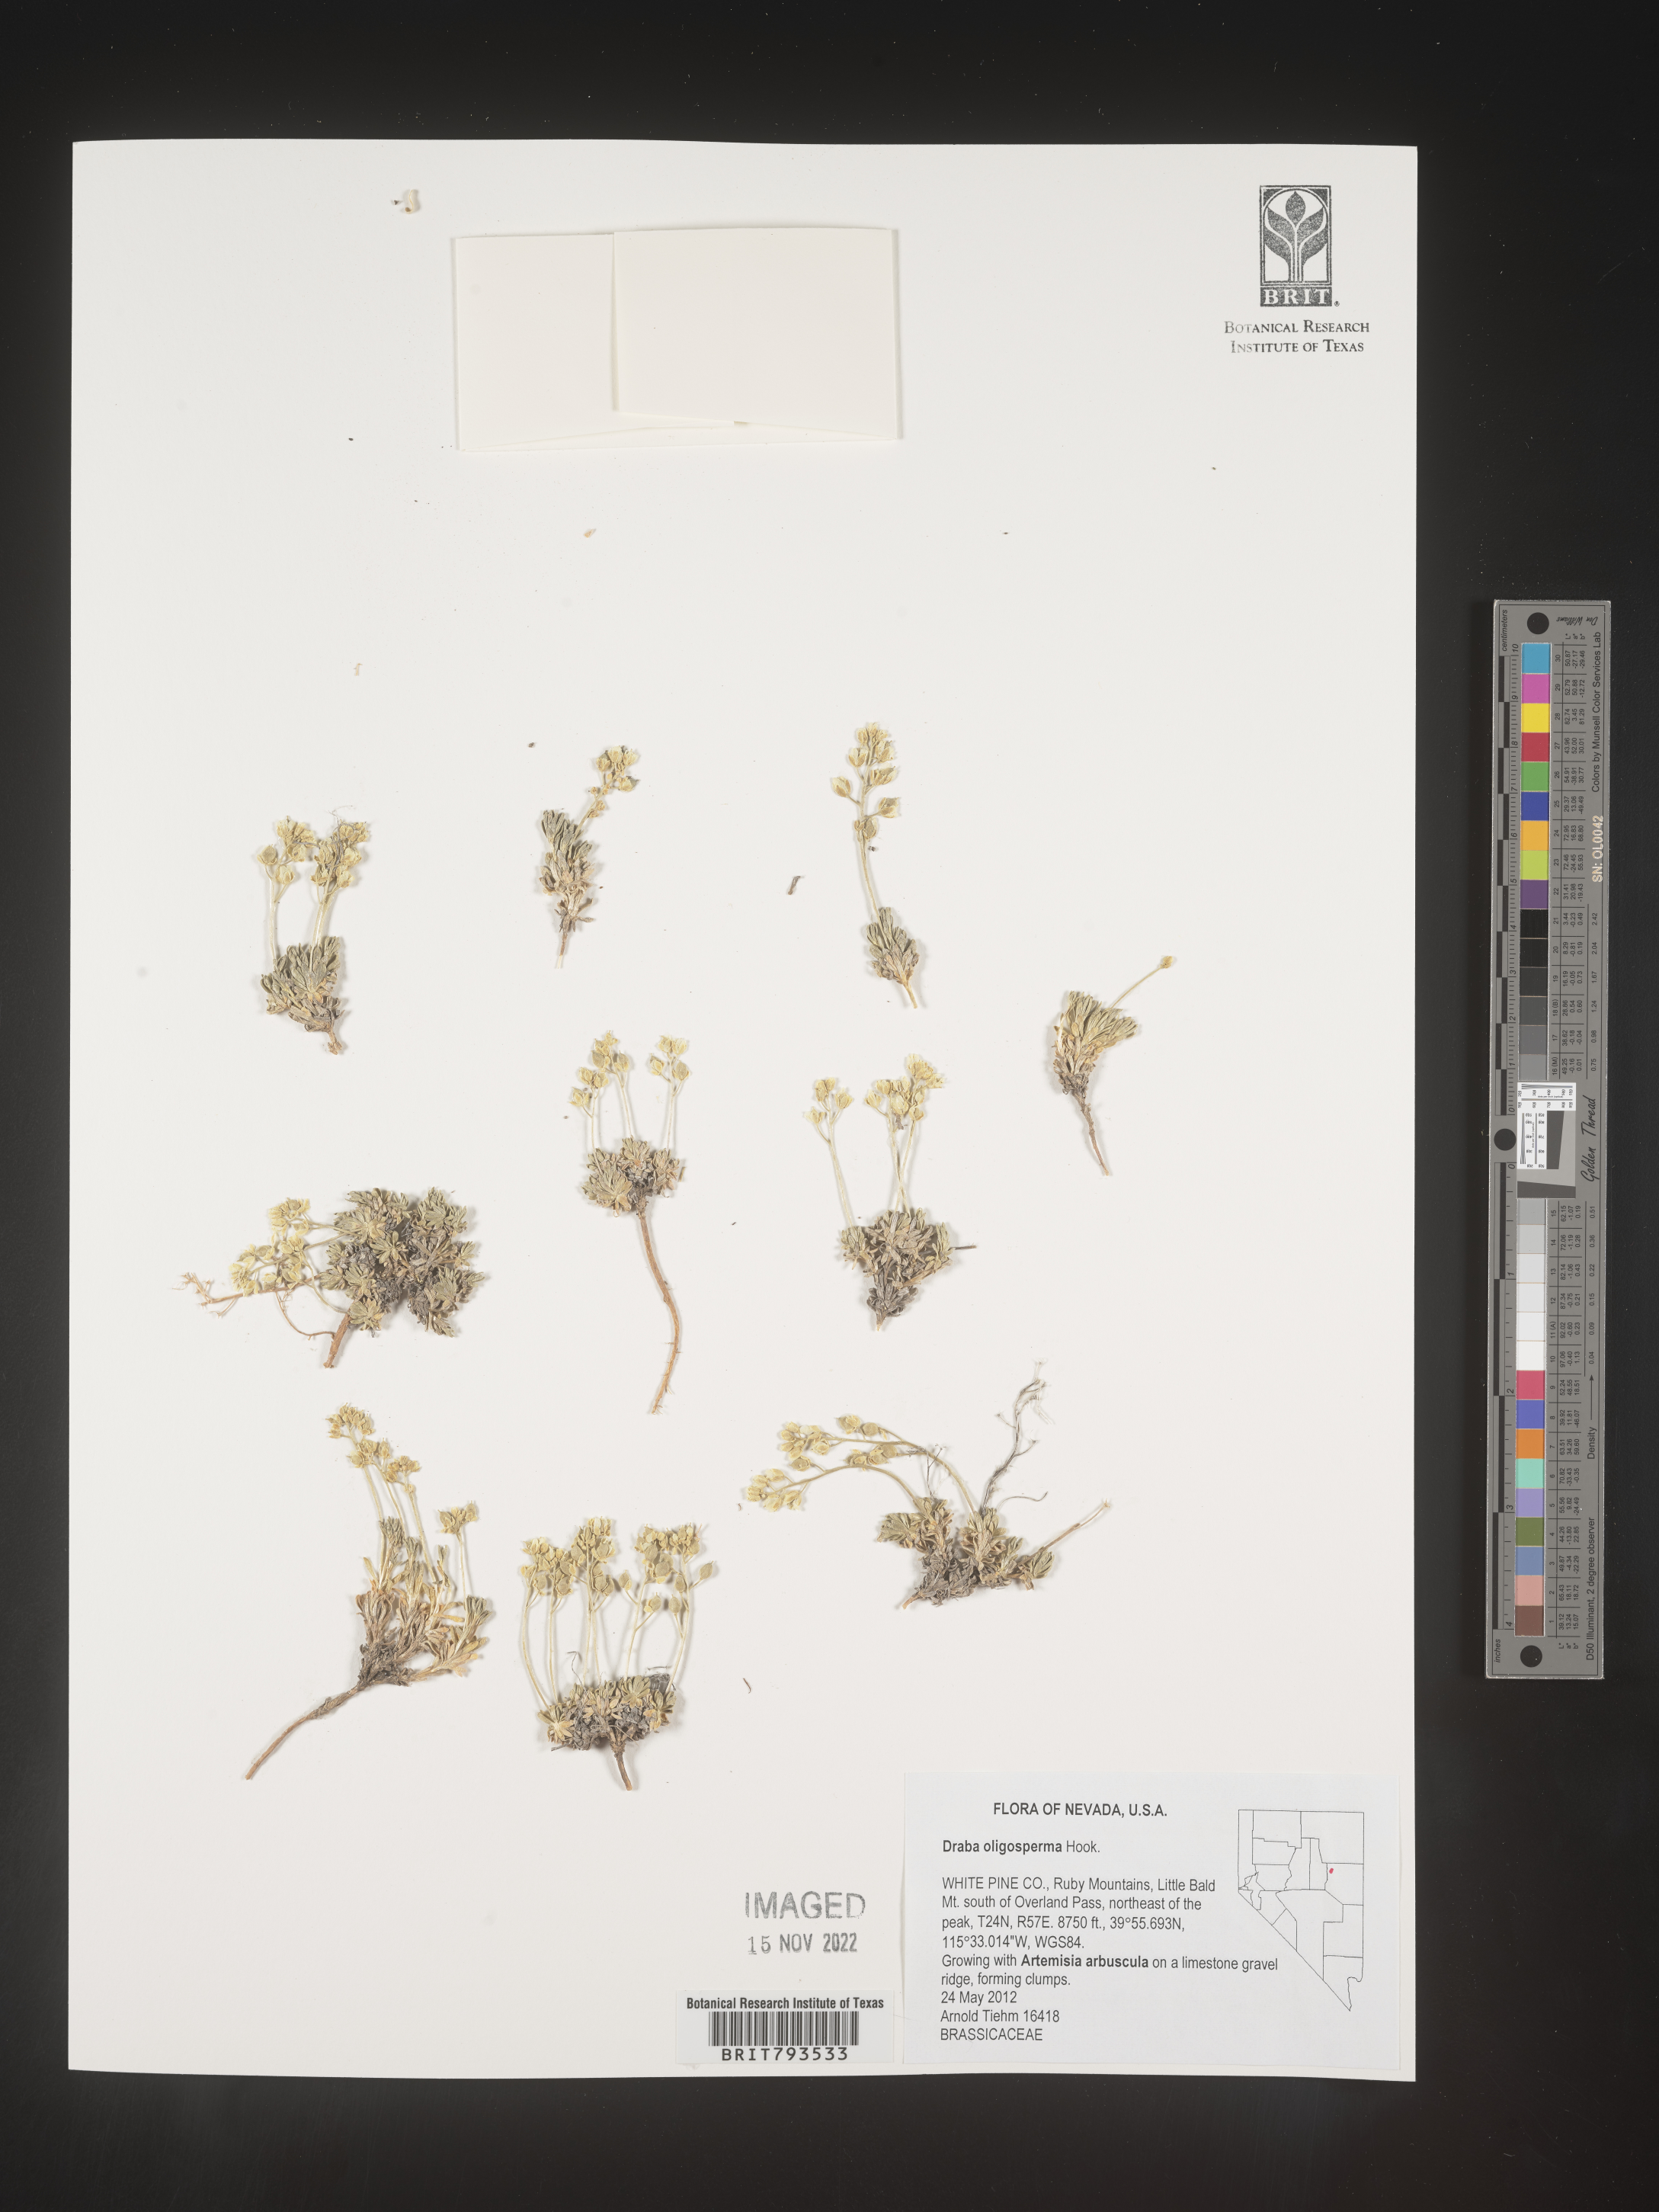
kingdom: Plantae
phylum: Tracheophyta
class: Magnoliopsida
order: Brassicales
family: Brassicaceae
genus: Draba
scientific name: Draba oligosperma
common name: Few-seed draba
